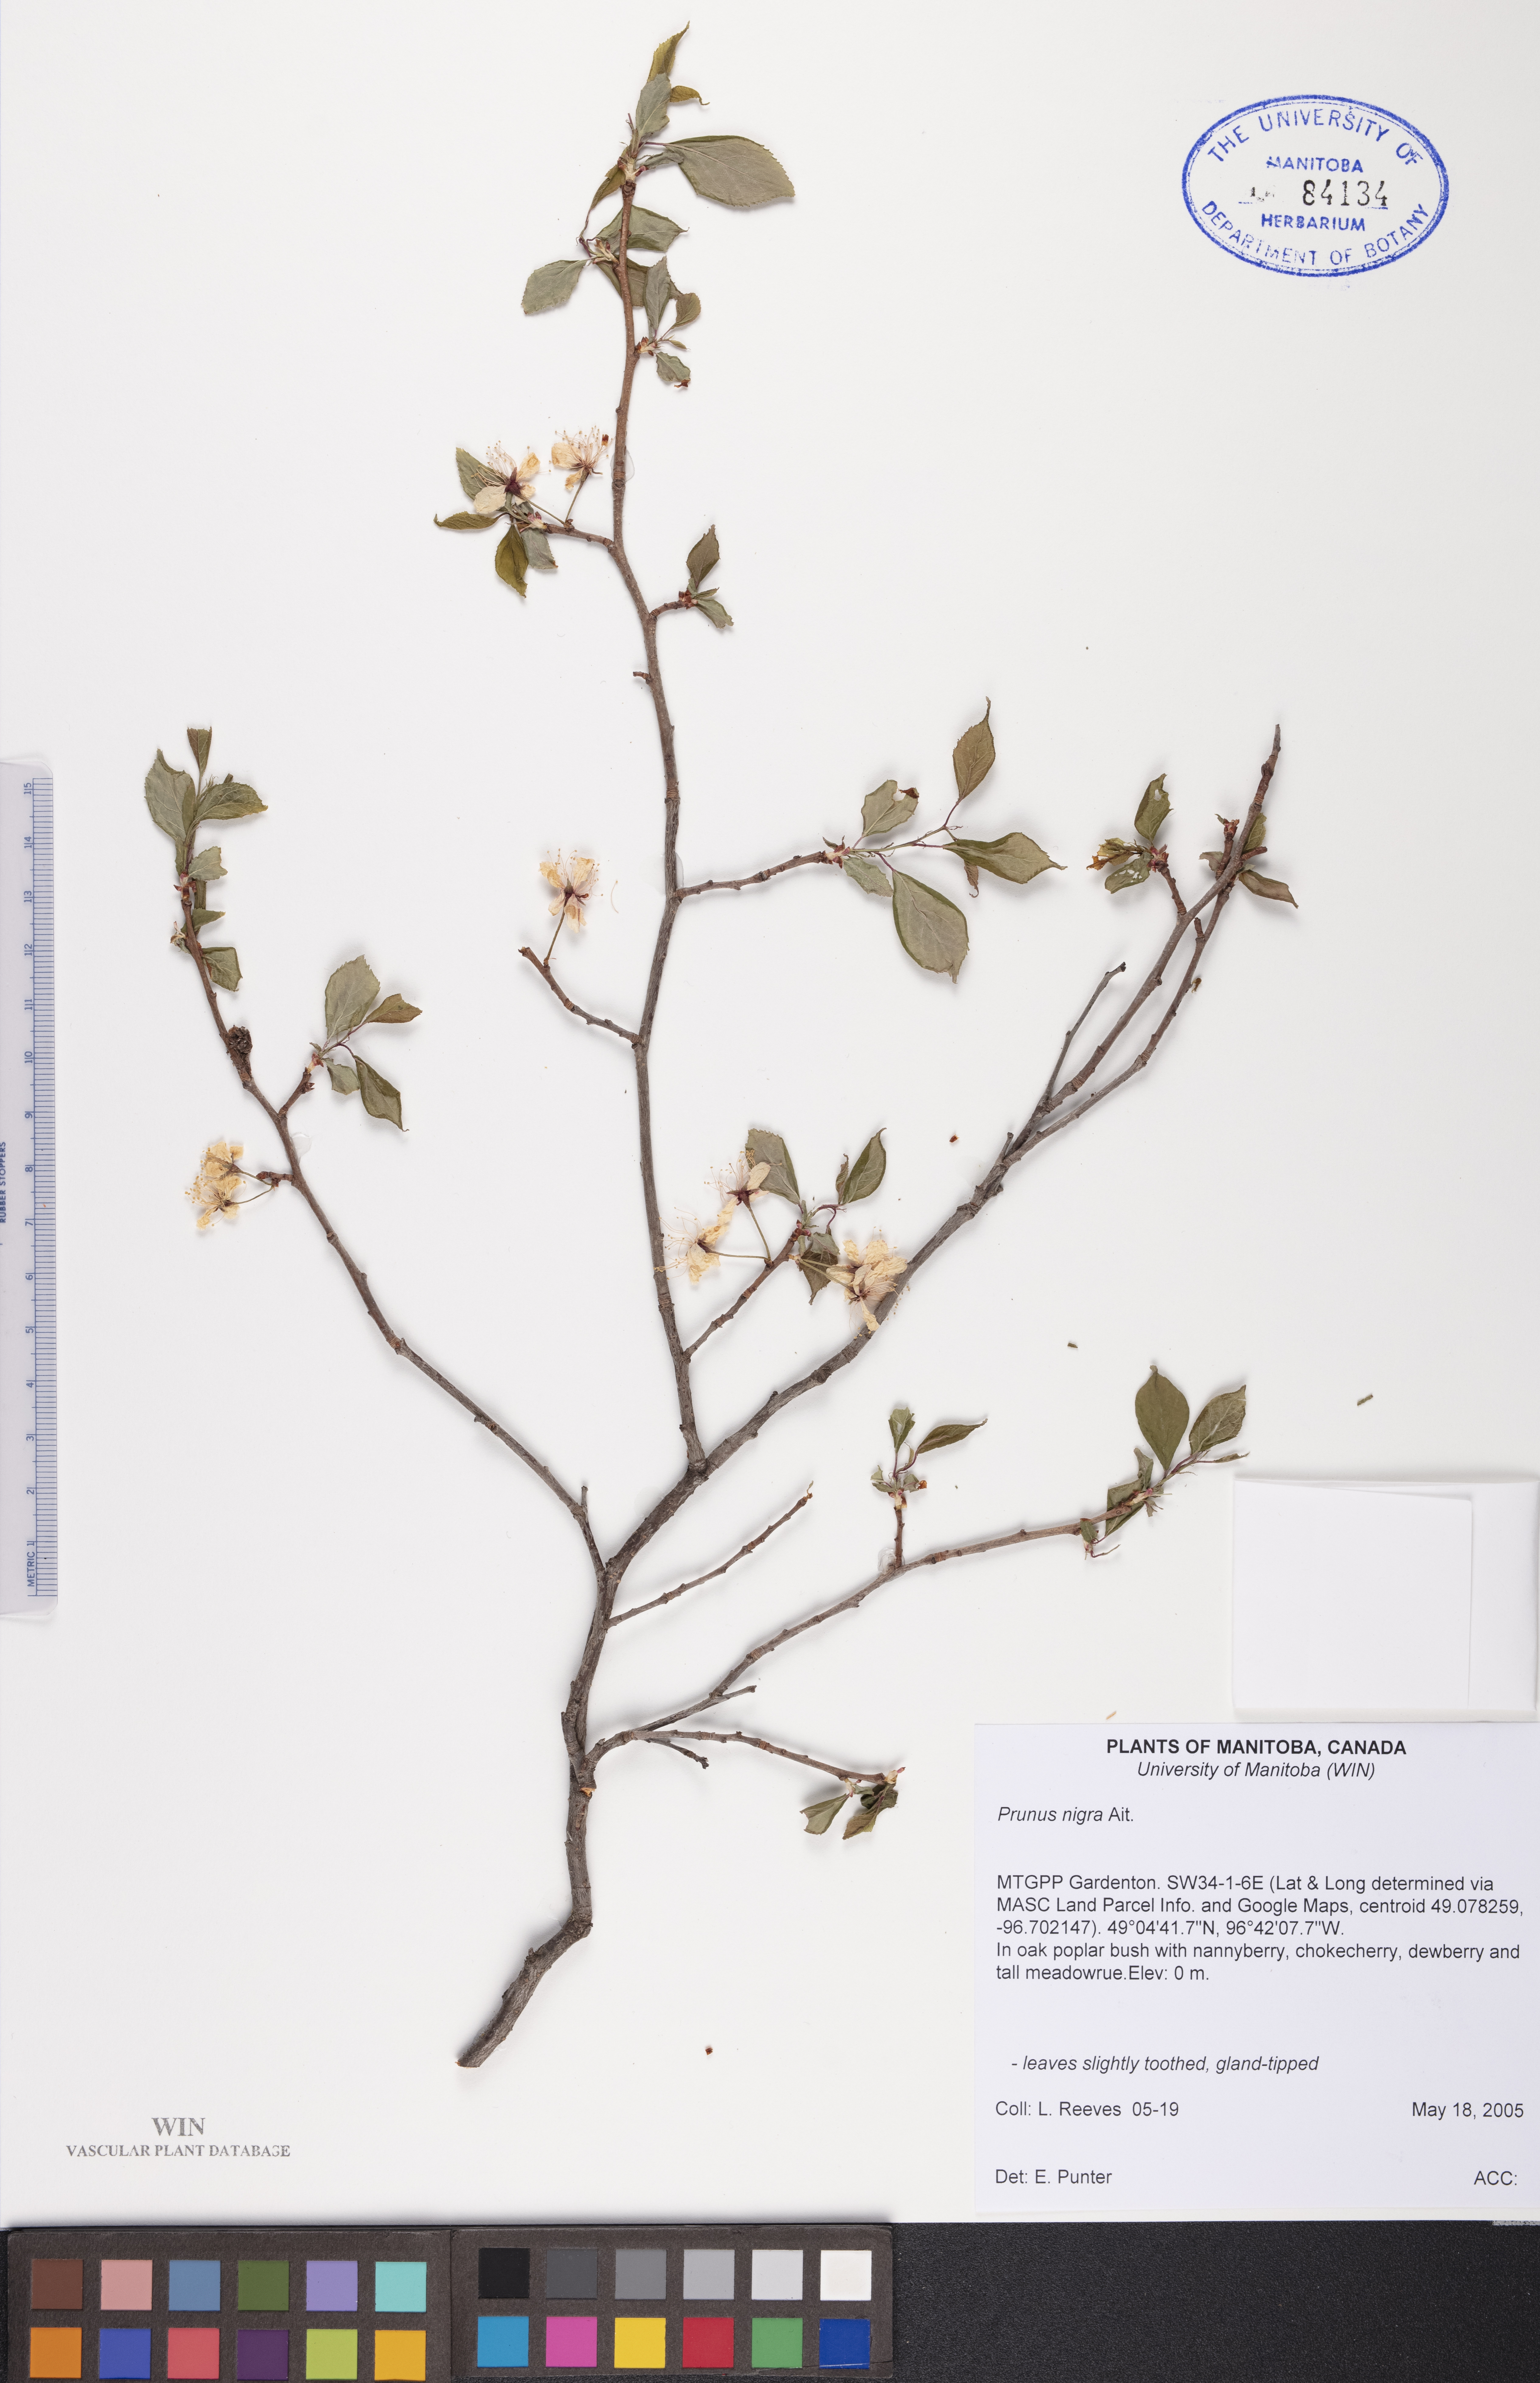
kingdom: Plantae
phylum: Tracheophyta
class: Magnoliopsida
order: Rosales
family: Rosaceae
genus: Prunus
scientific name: Prunus nigra
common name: Black plum
